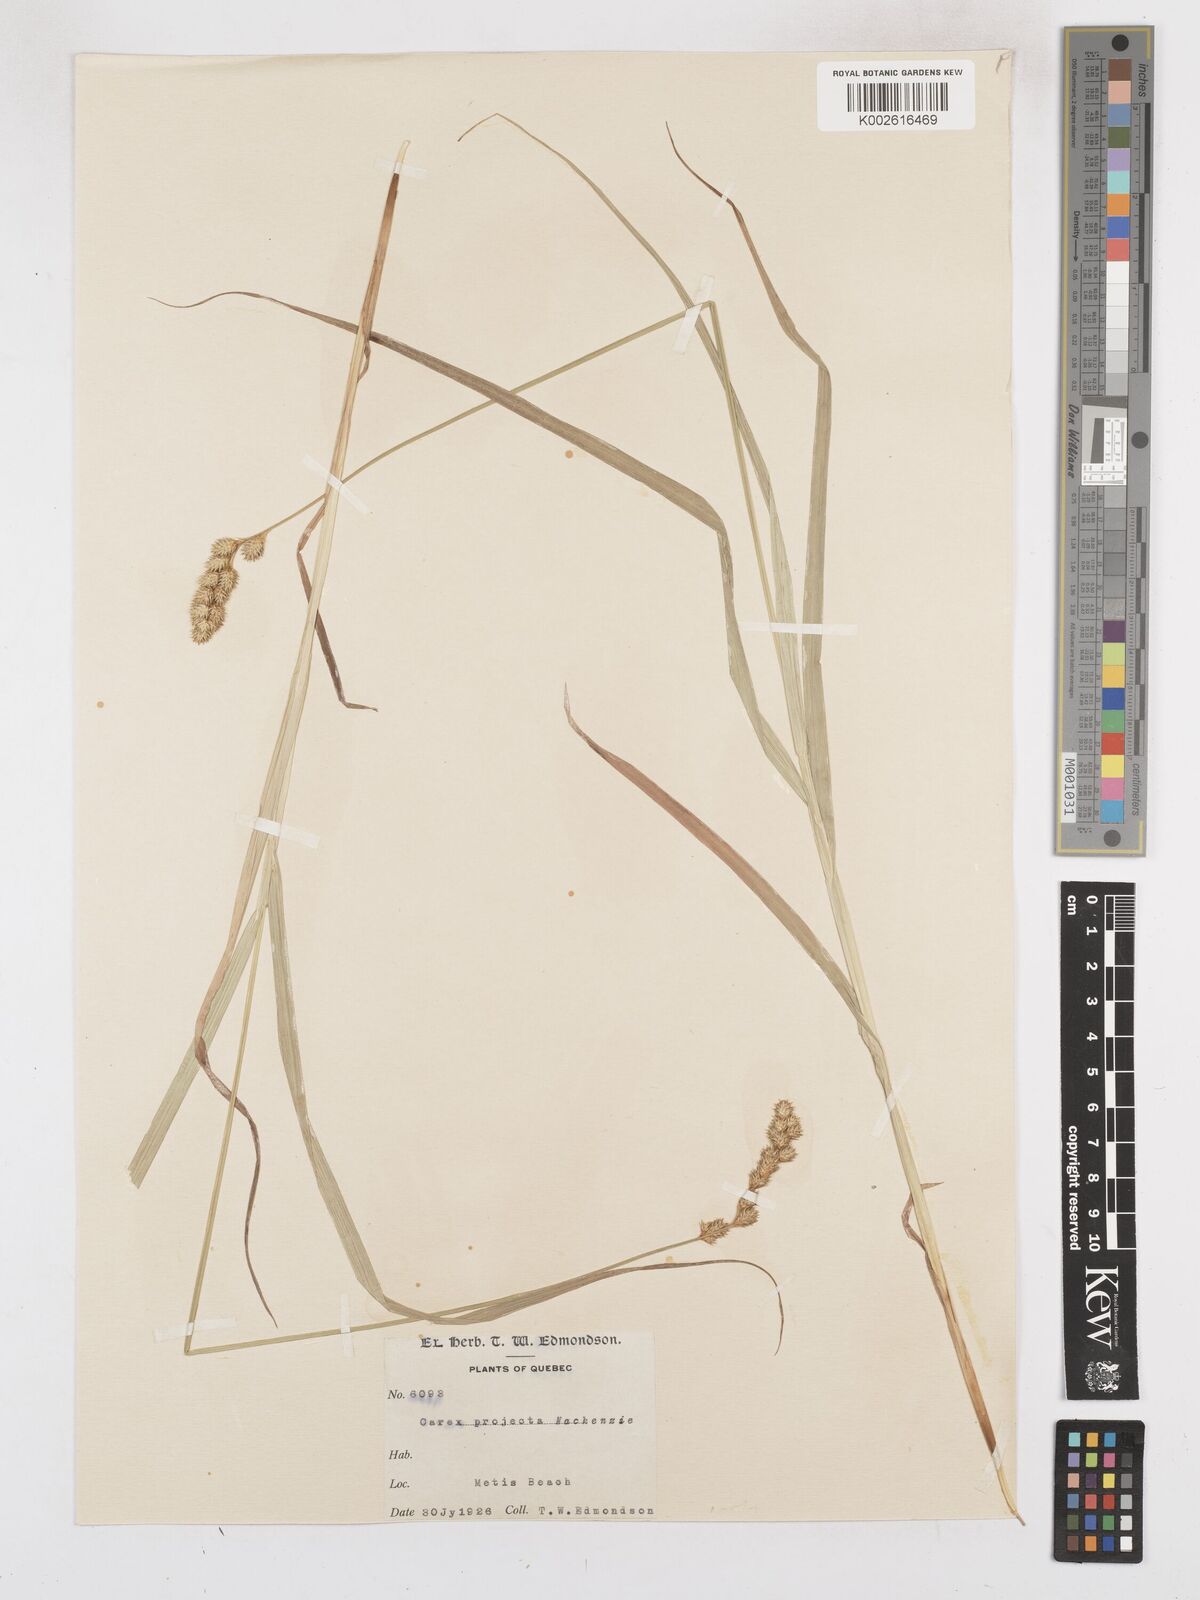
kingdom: Plantae
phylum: Tracheophyta
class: Liliopsida
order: Poales
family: Cyperaceae
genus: Carex
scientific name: Carex projecta
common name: Loose-headed oval sedge
